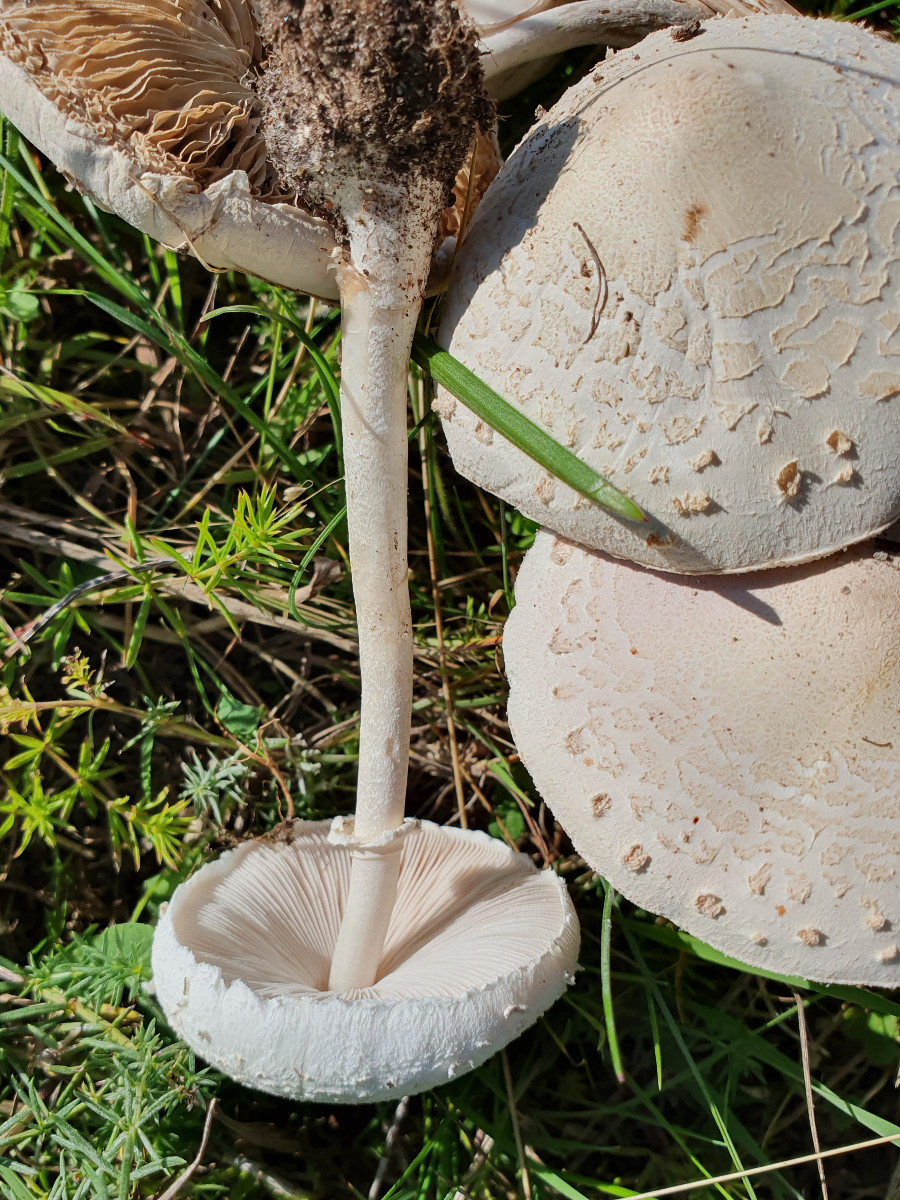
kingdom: Fungi
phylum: Basidiomycota
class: Agaricomycetes
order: Agaricales
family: Agaricaceae
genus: Macrolepiota
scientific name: Macrolepiota excoriata
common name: mark-kæmpeparasolhat
